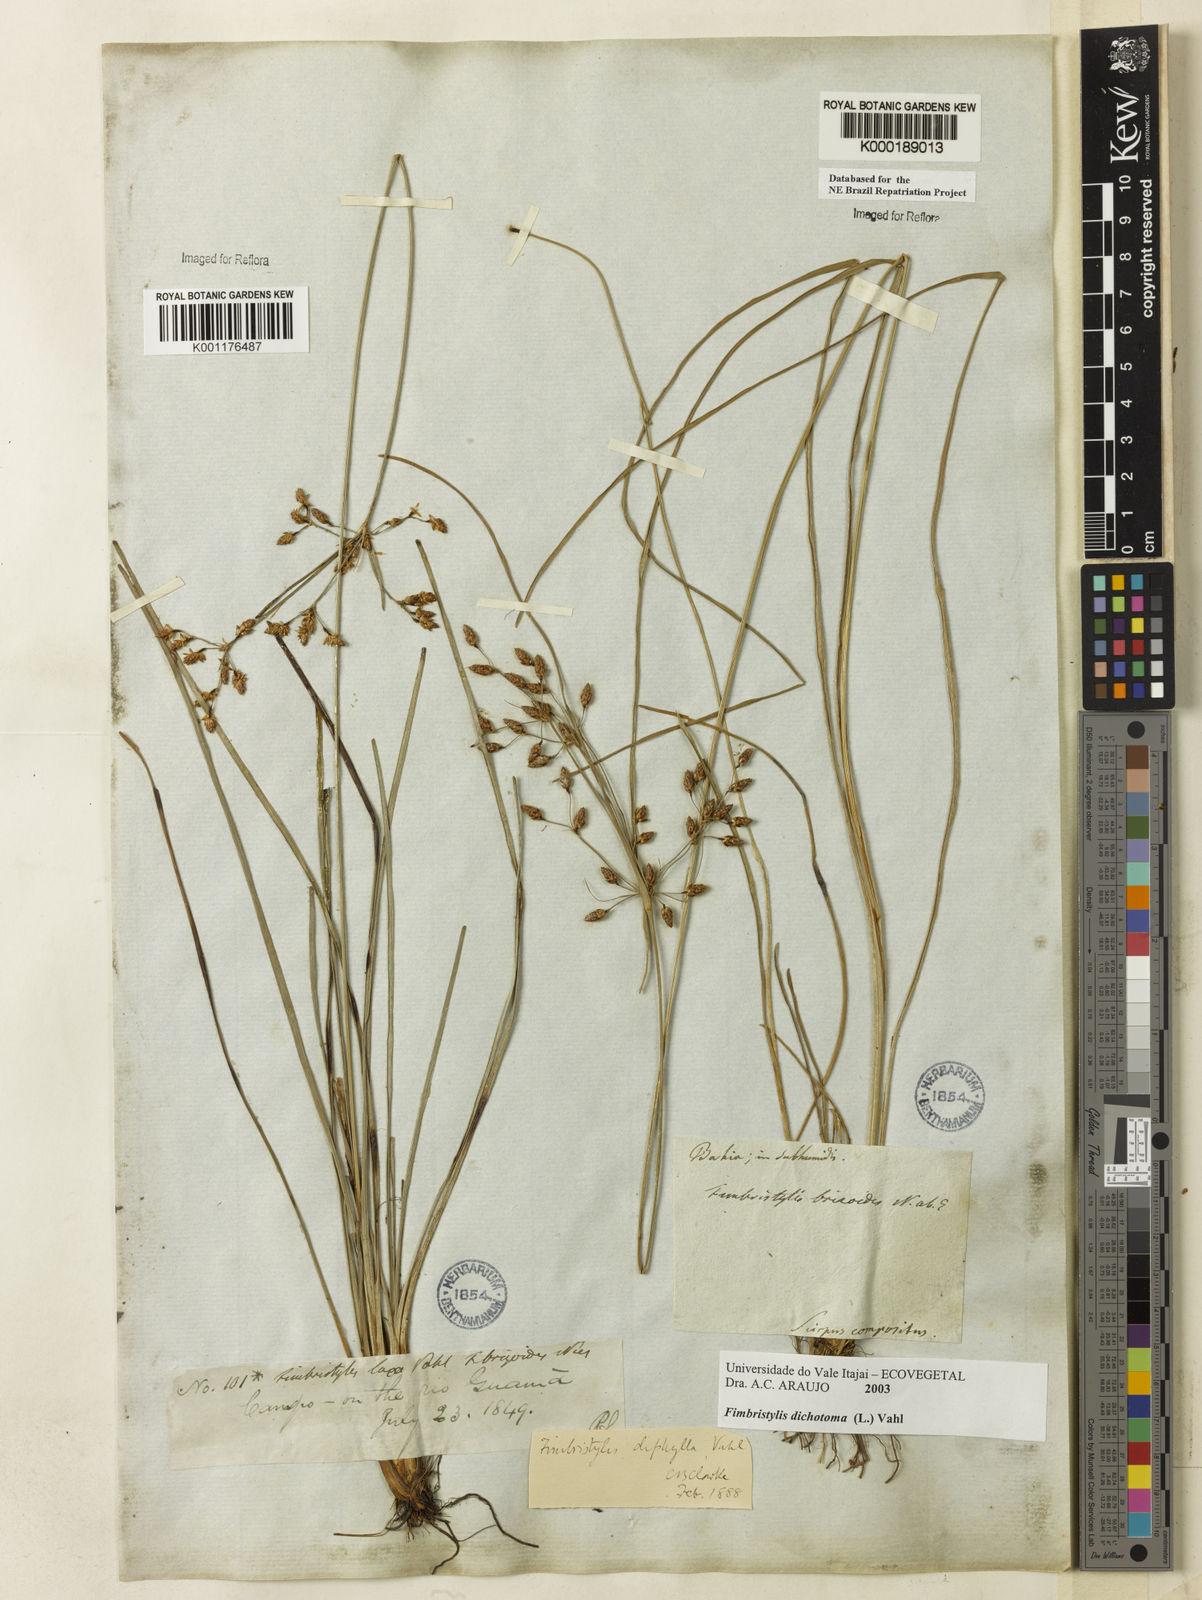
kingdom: Plantae
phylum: Tracheophyta
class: Liliopsida
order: Poales
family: Cyperaceae
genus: Fimbristylis
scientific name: Fimbristylis dichotoma
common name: Forked fimbry
